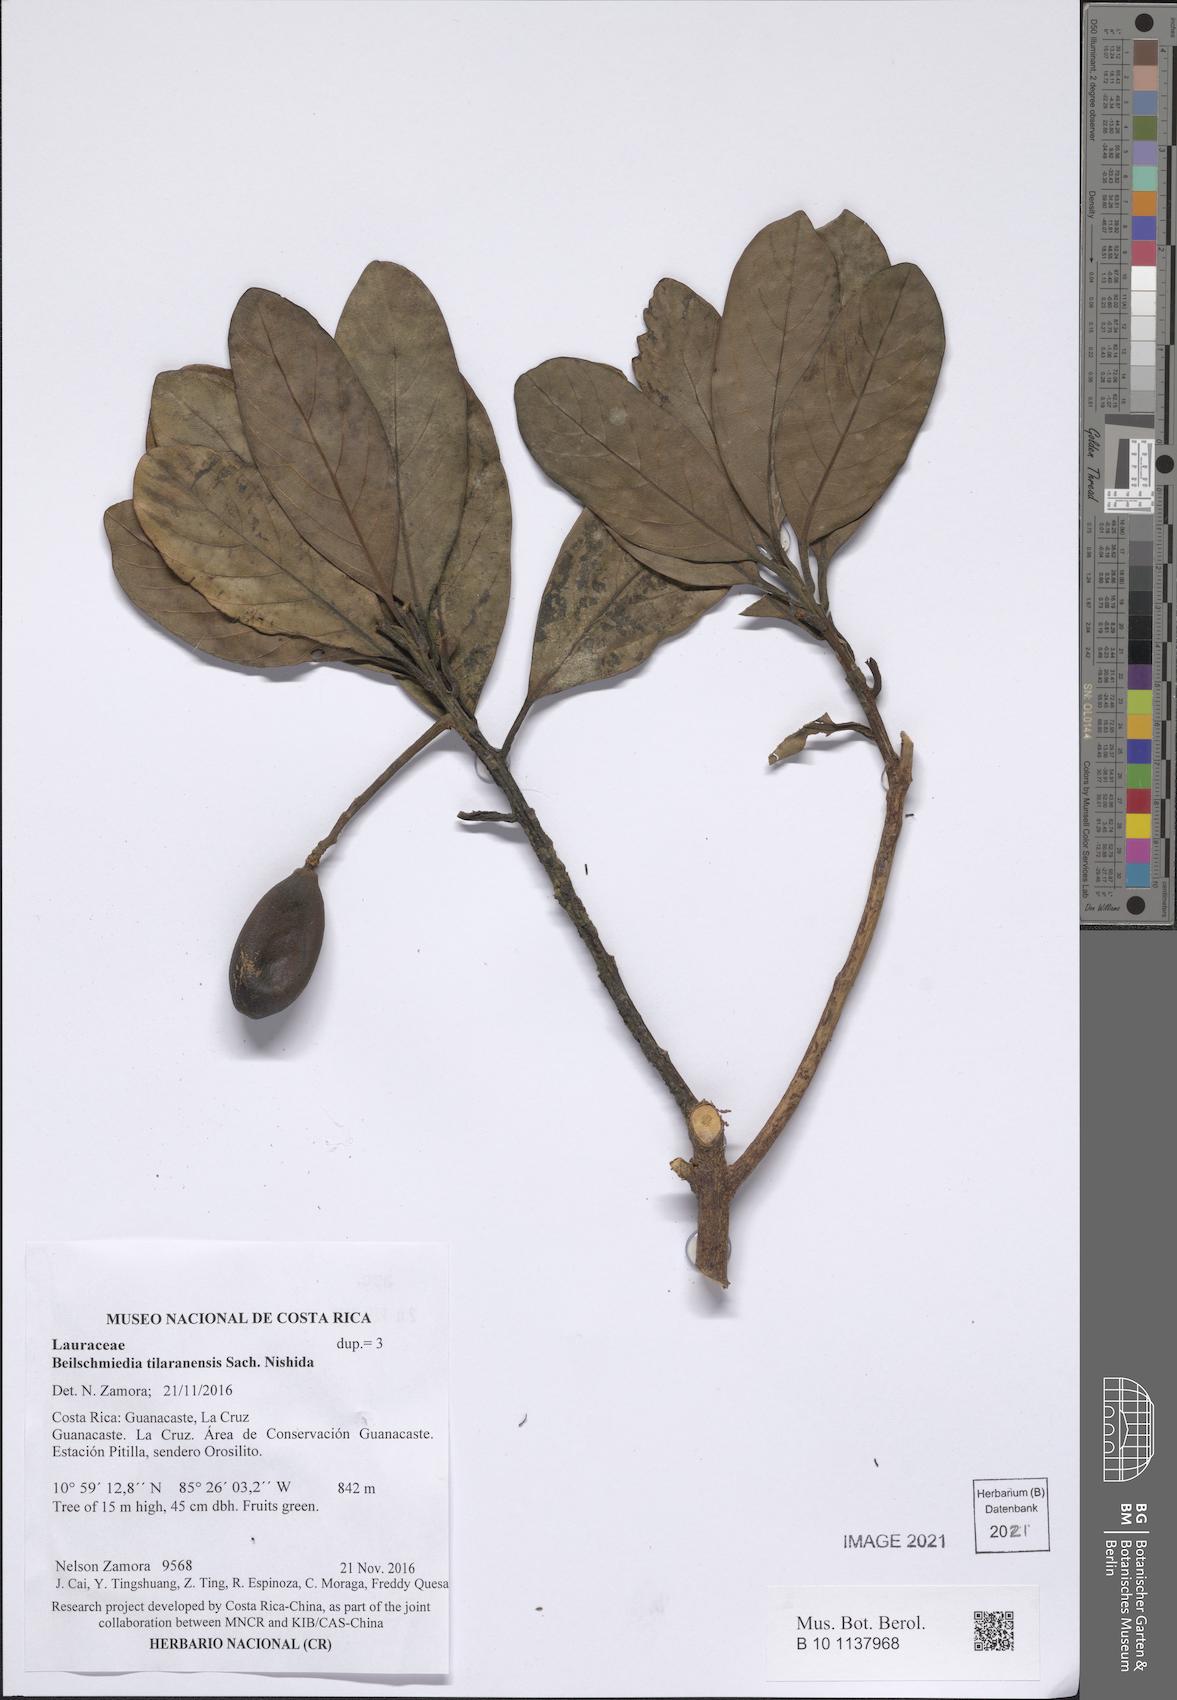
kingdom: Plantae
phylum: Tracheophyta
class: Magnoliopsida
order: Laurales
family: Lauraceae
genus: Beilschmiedia
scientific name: Beilschmiedia tilaranensis
